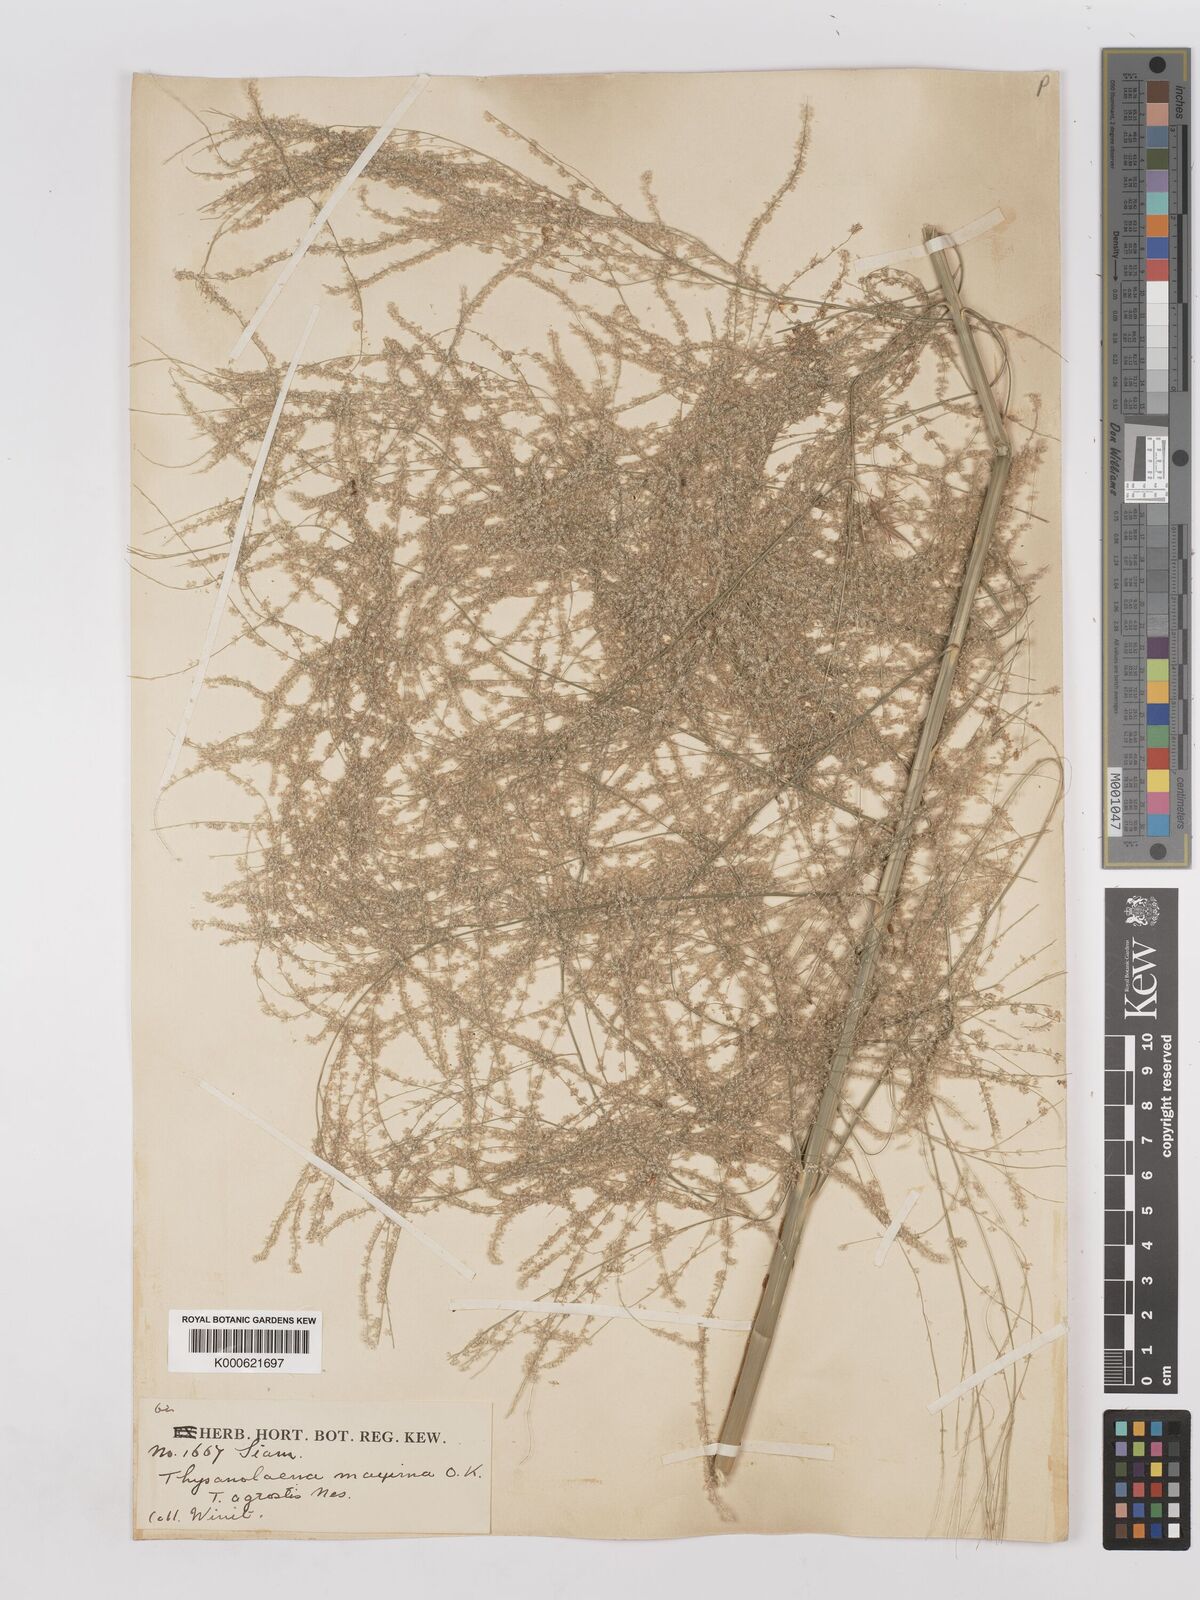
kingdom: Plantae
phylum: Tracheophyta
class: Liliopsida
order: Poales
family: Poaceae
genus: Thysanolaena
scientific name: Thysanolaena latifolia
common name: Tiger grass
